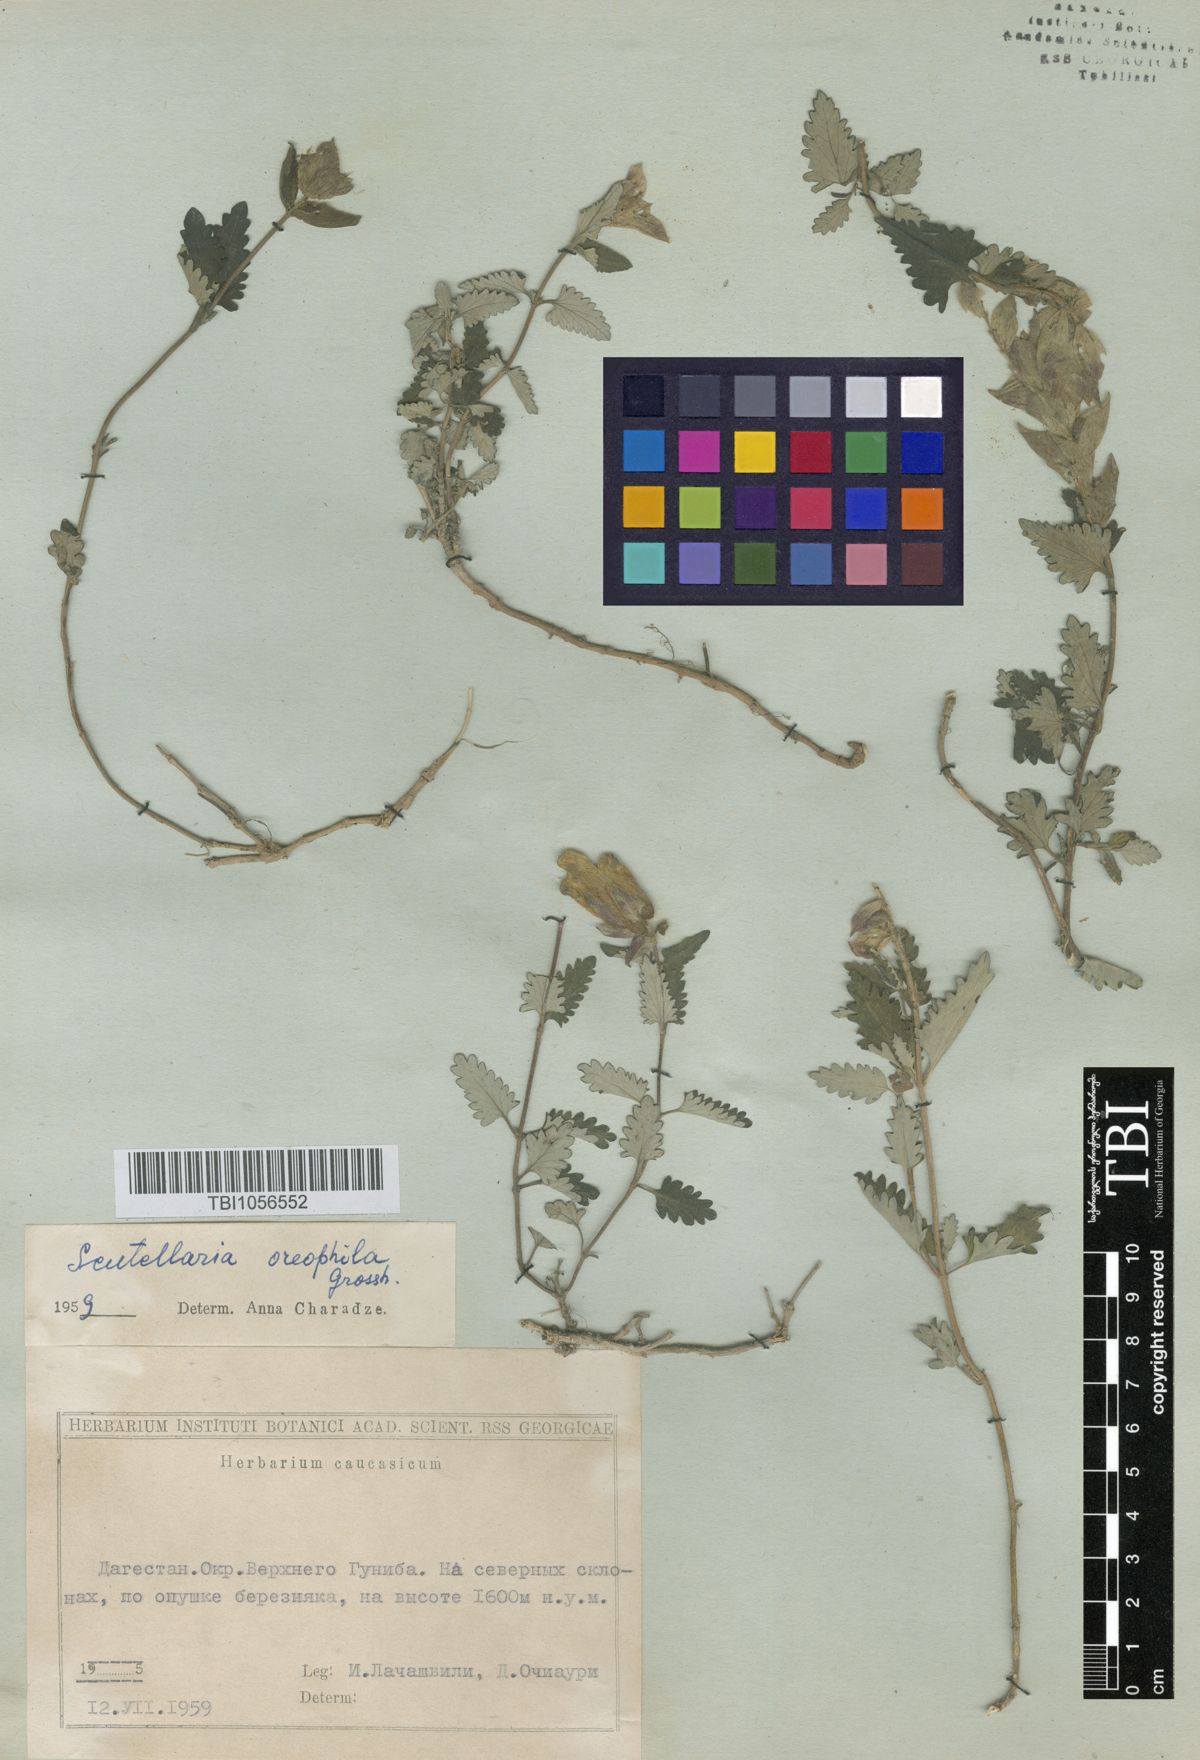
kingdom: Plantae
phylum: Tracheophyta
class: Magnoliopsida
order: Lamiales
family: Lamiaceae
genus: Scutellaria
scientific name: Scutellaria oreophila
